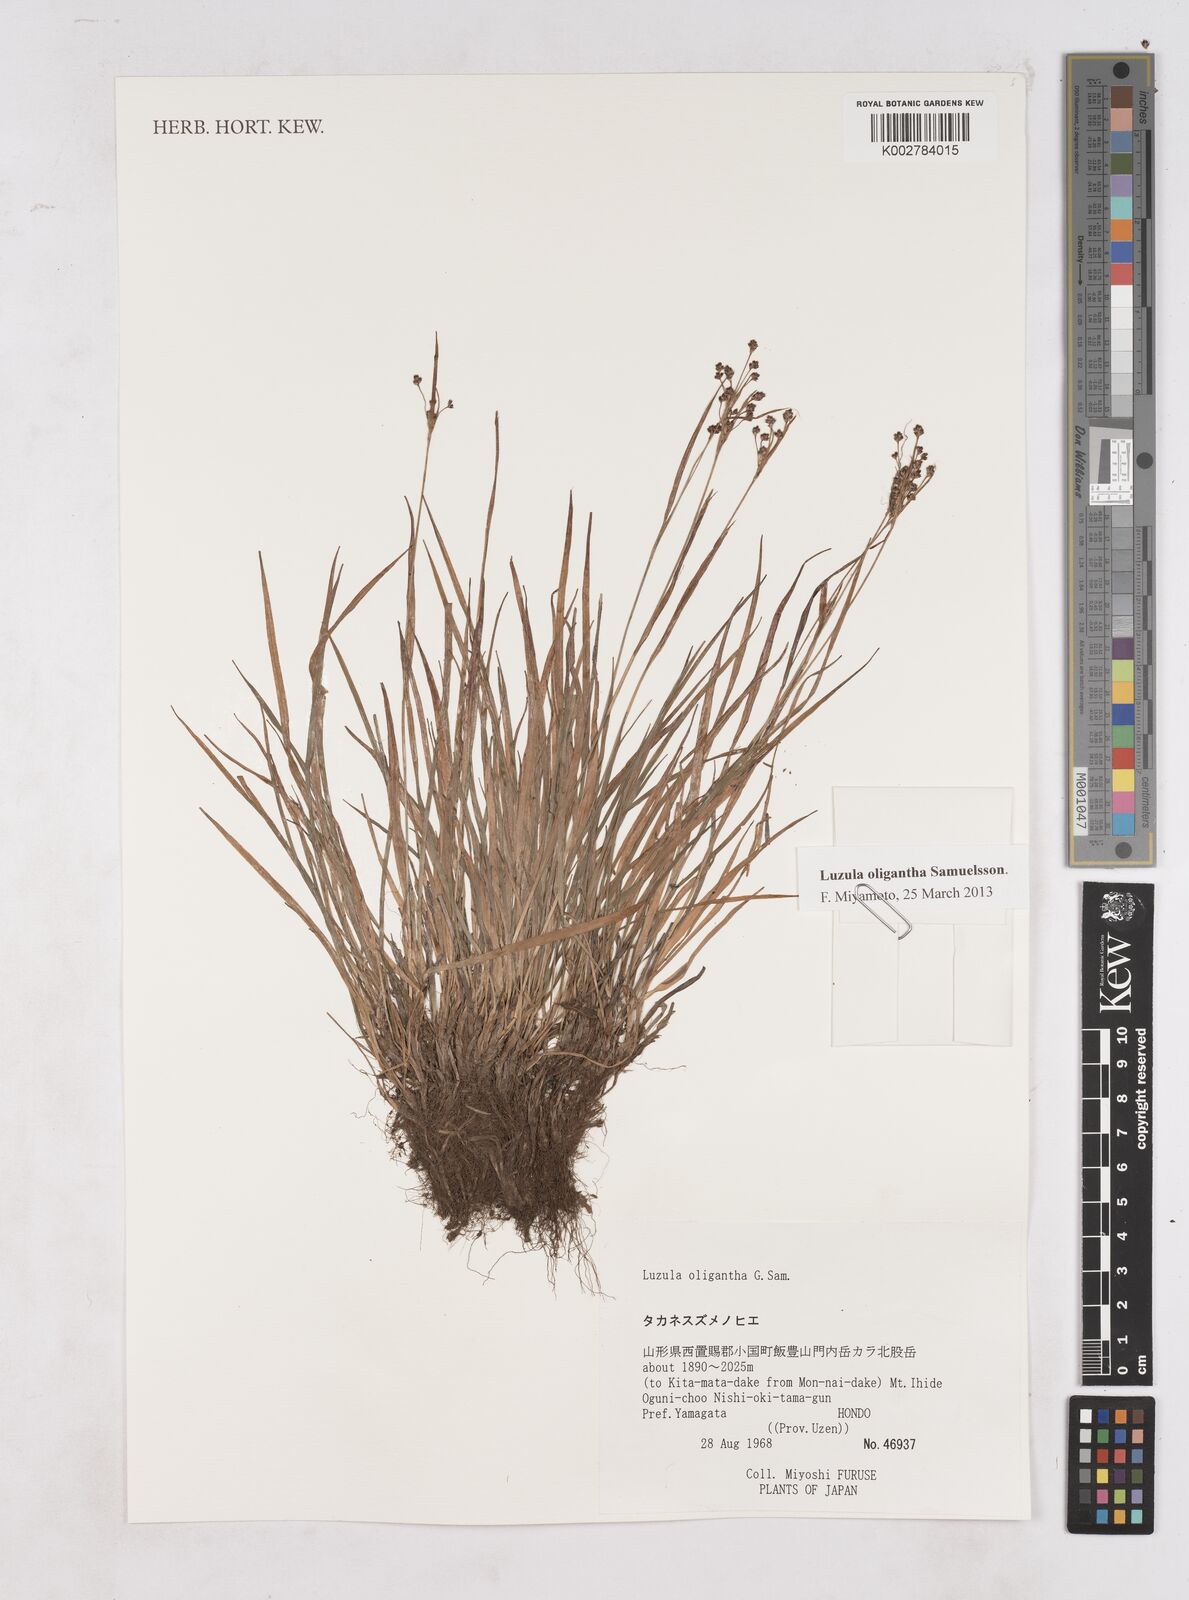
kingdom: Plantae
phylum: Tracheophyta
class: Liliopsida
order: Poales
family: Juncaceae
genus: Luzula
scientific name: Luzula oligantha
